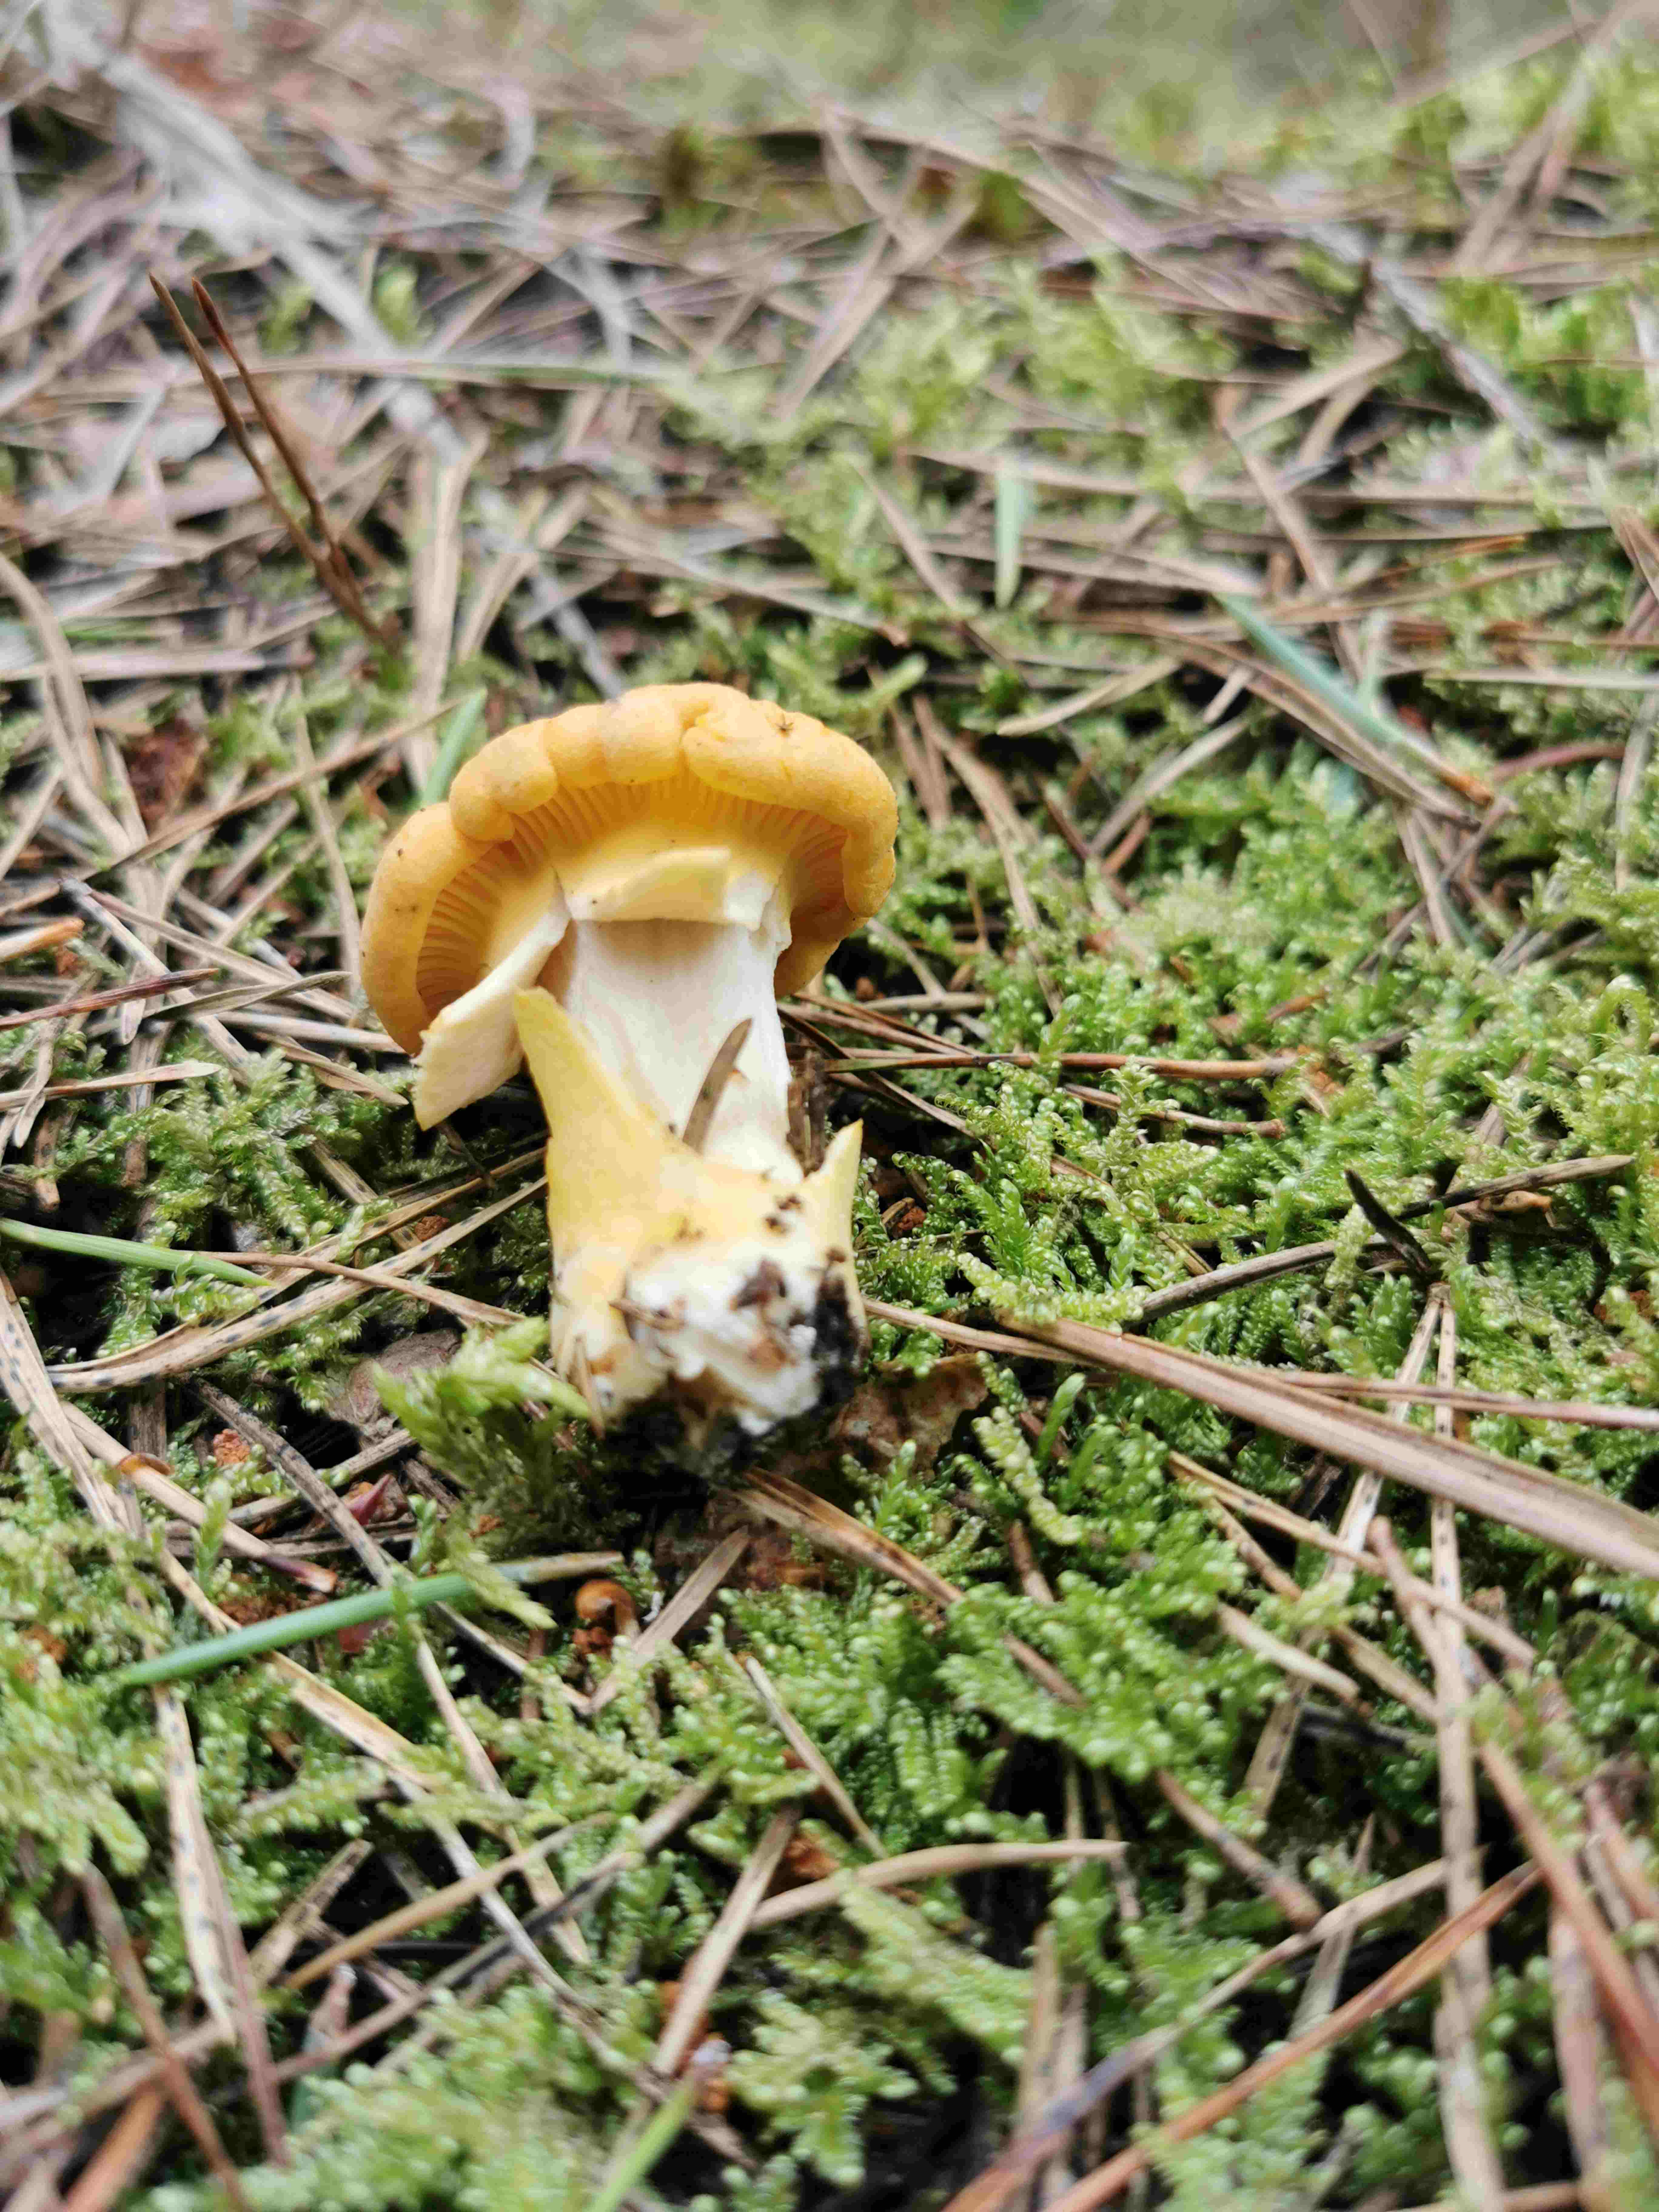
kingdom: Fungi
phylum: Basidiomycota
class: Agaricomycetes
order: Cantharellales
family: Hydnaceae
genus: Cantharellus
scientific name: Cantharellus cibarius
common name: almindelig kantarel
